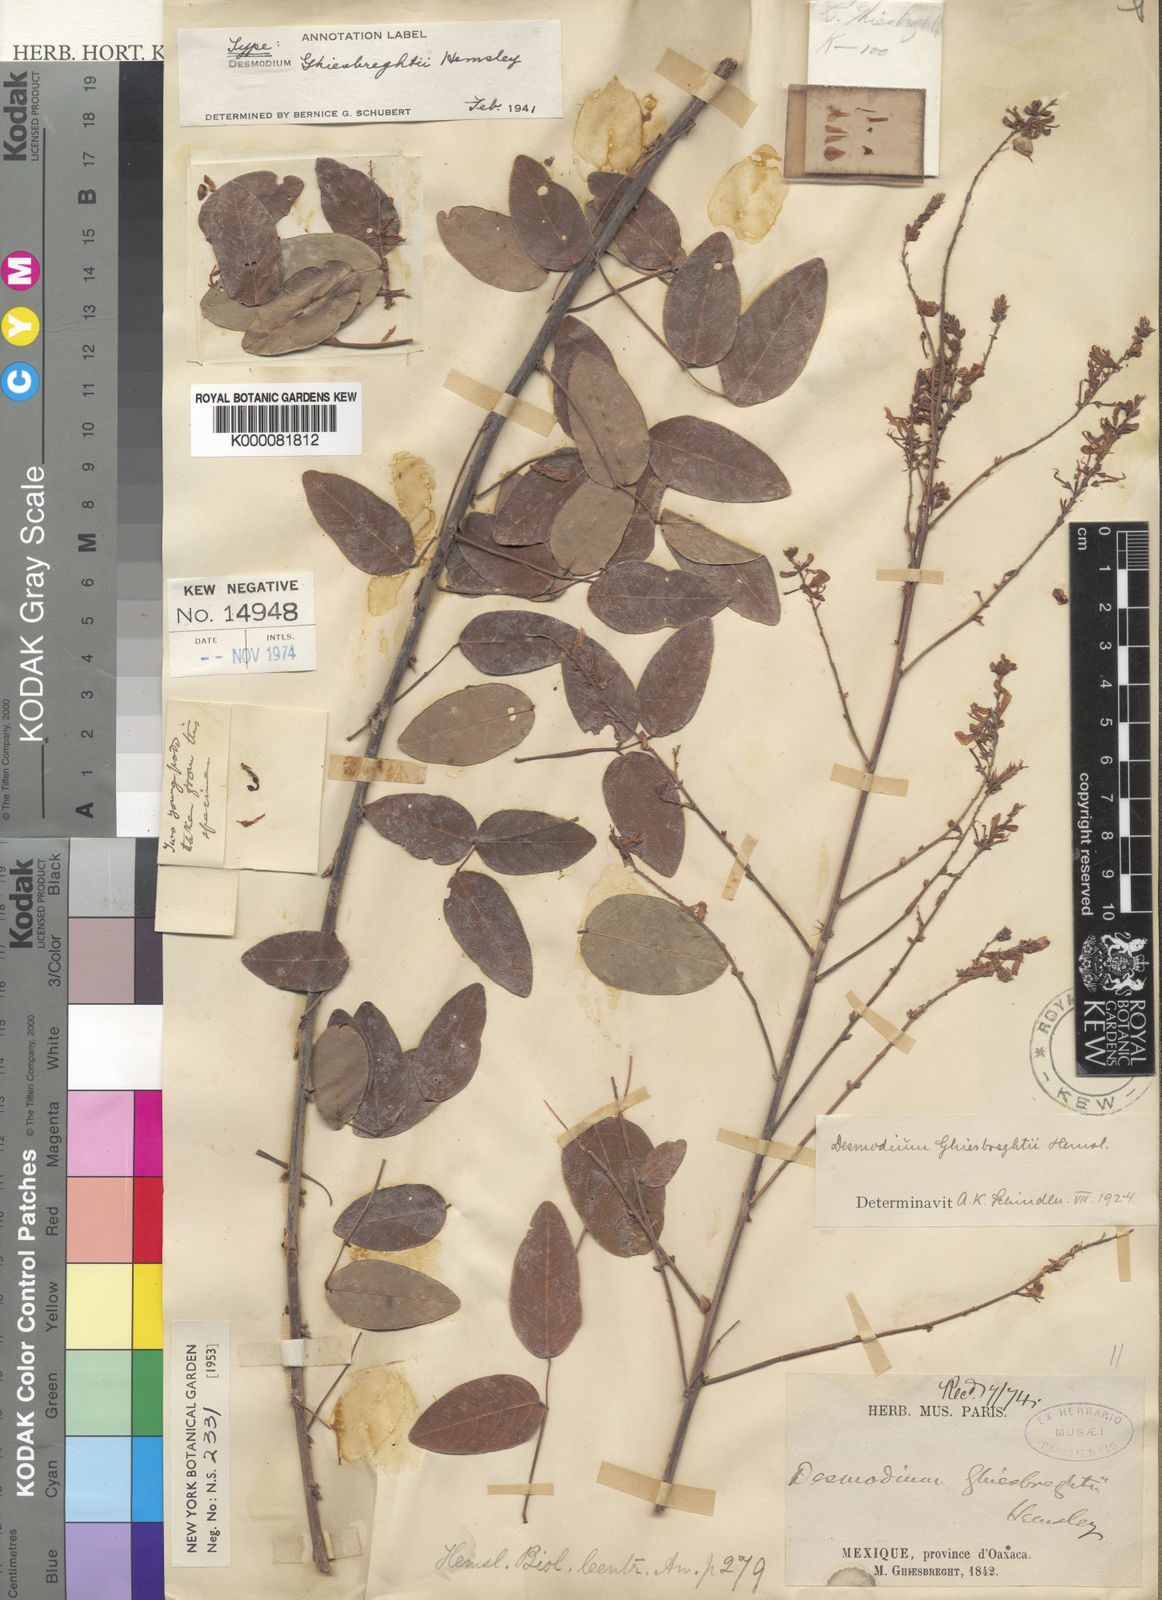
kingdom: Plantae
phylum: Tracheophyta
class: Magnoliopsida
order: Fabales
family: Fabaceae
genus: Desmodium
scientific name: Desmodium ghiesbreghtii
